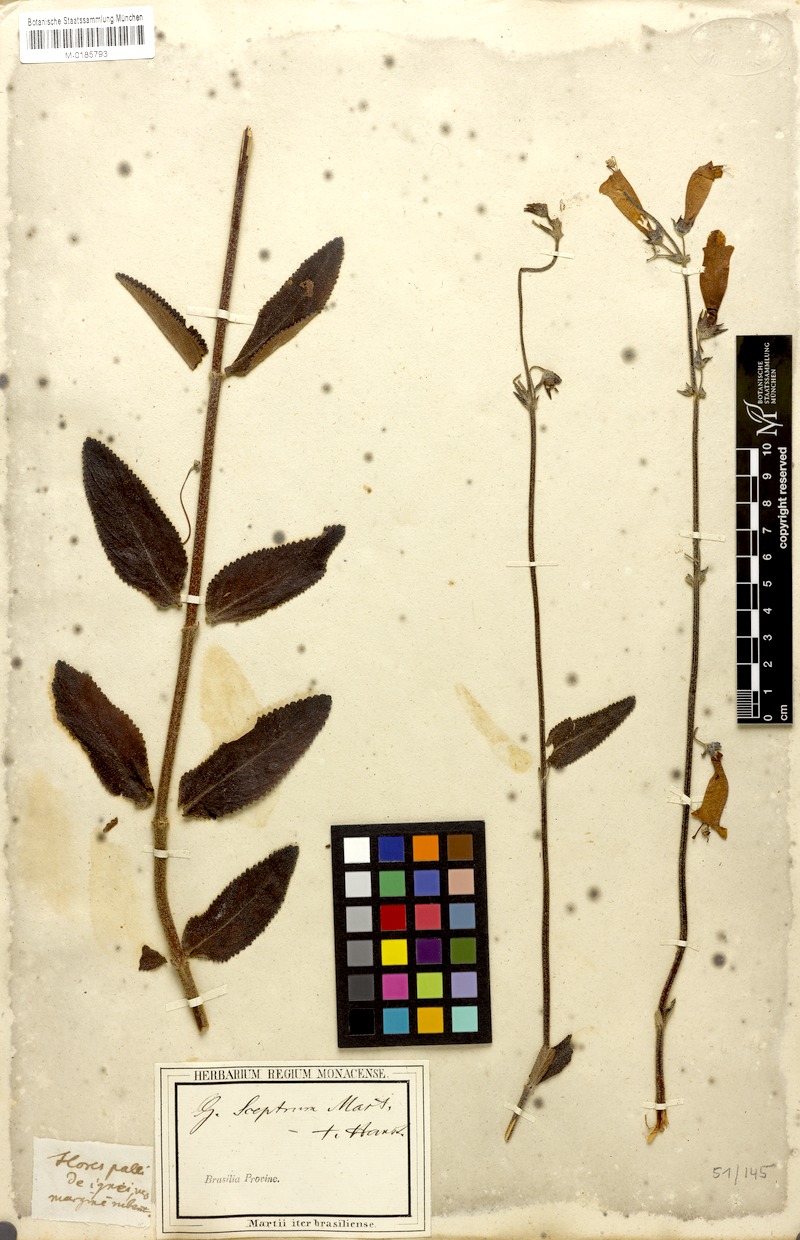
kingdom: Plantae
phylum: Tracheophyta
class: Magnoliopsida
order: Lamiales
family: Gesneriaceae
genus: Sinningia
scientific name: Sinningia elatior
